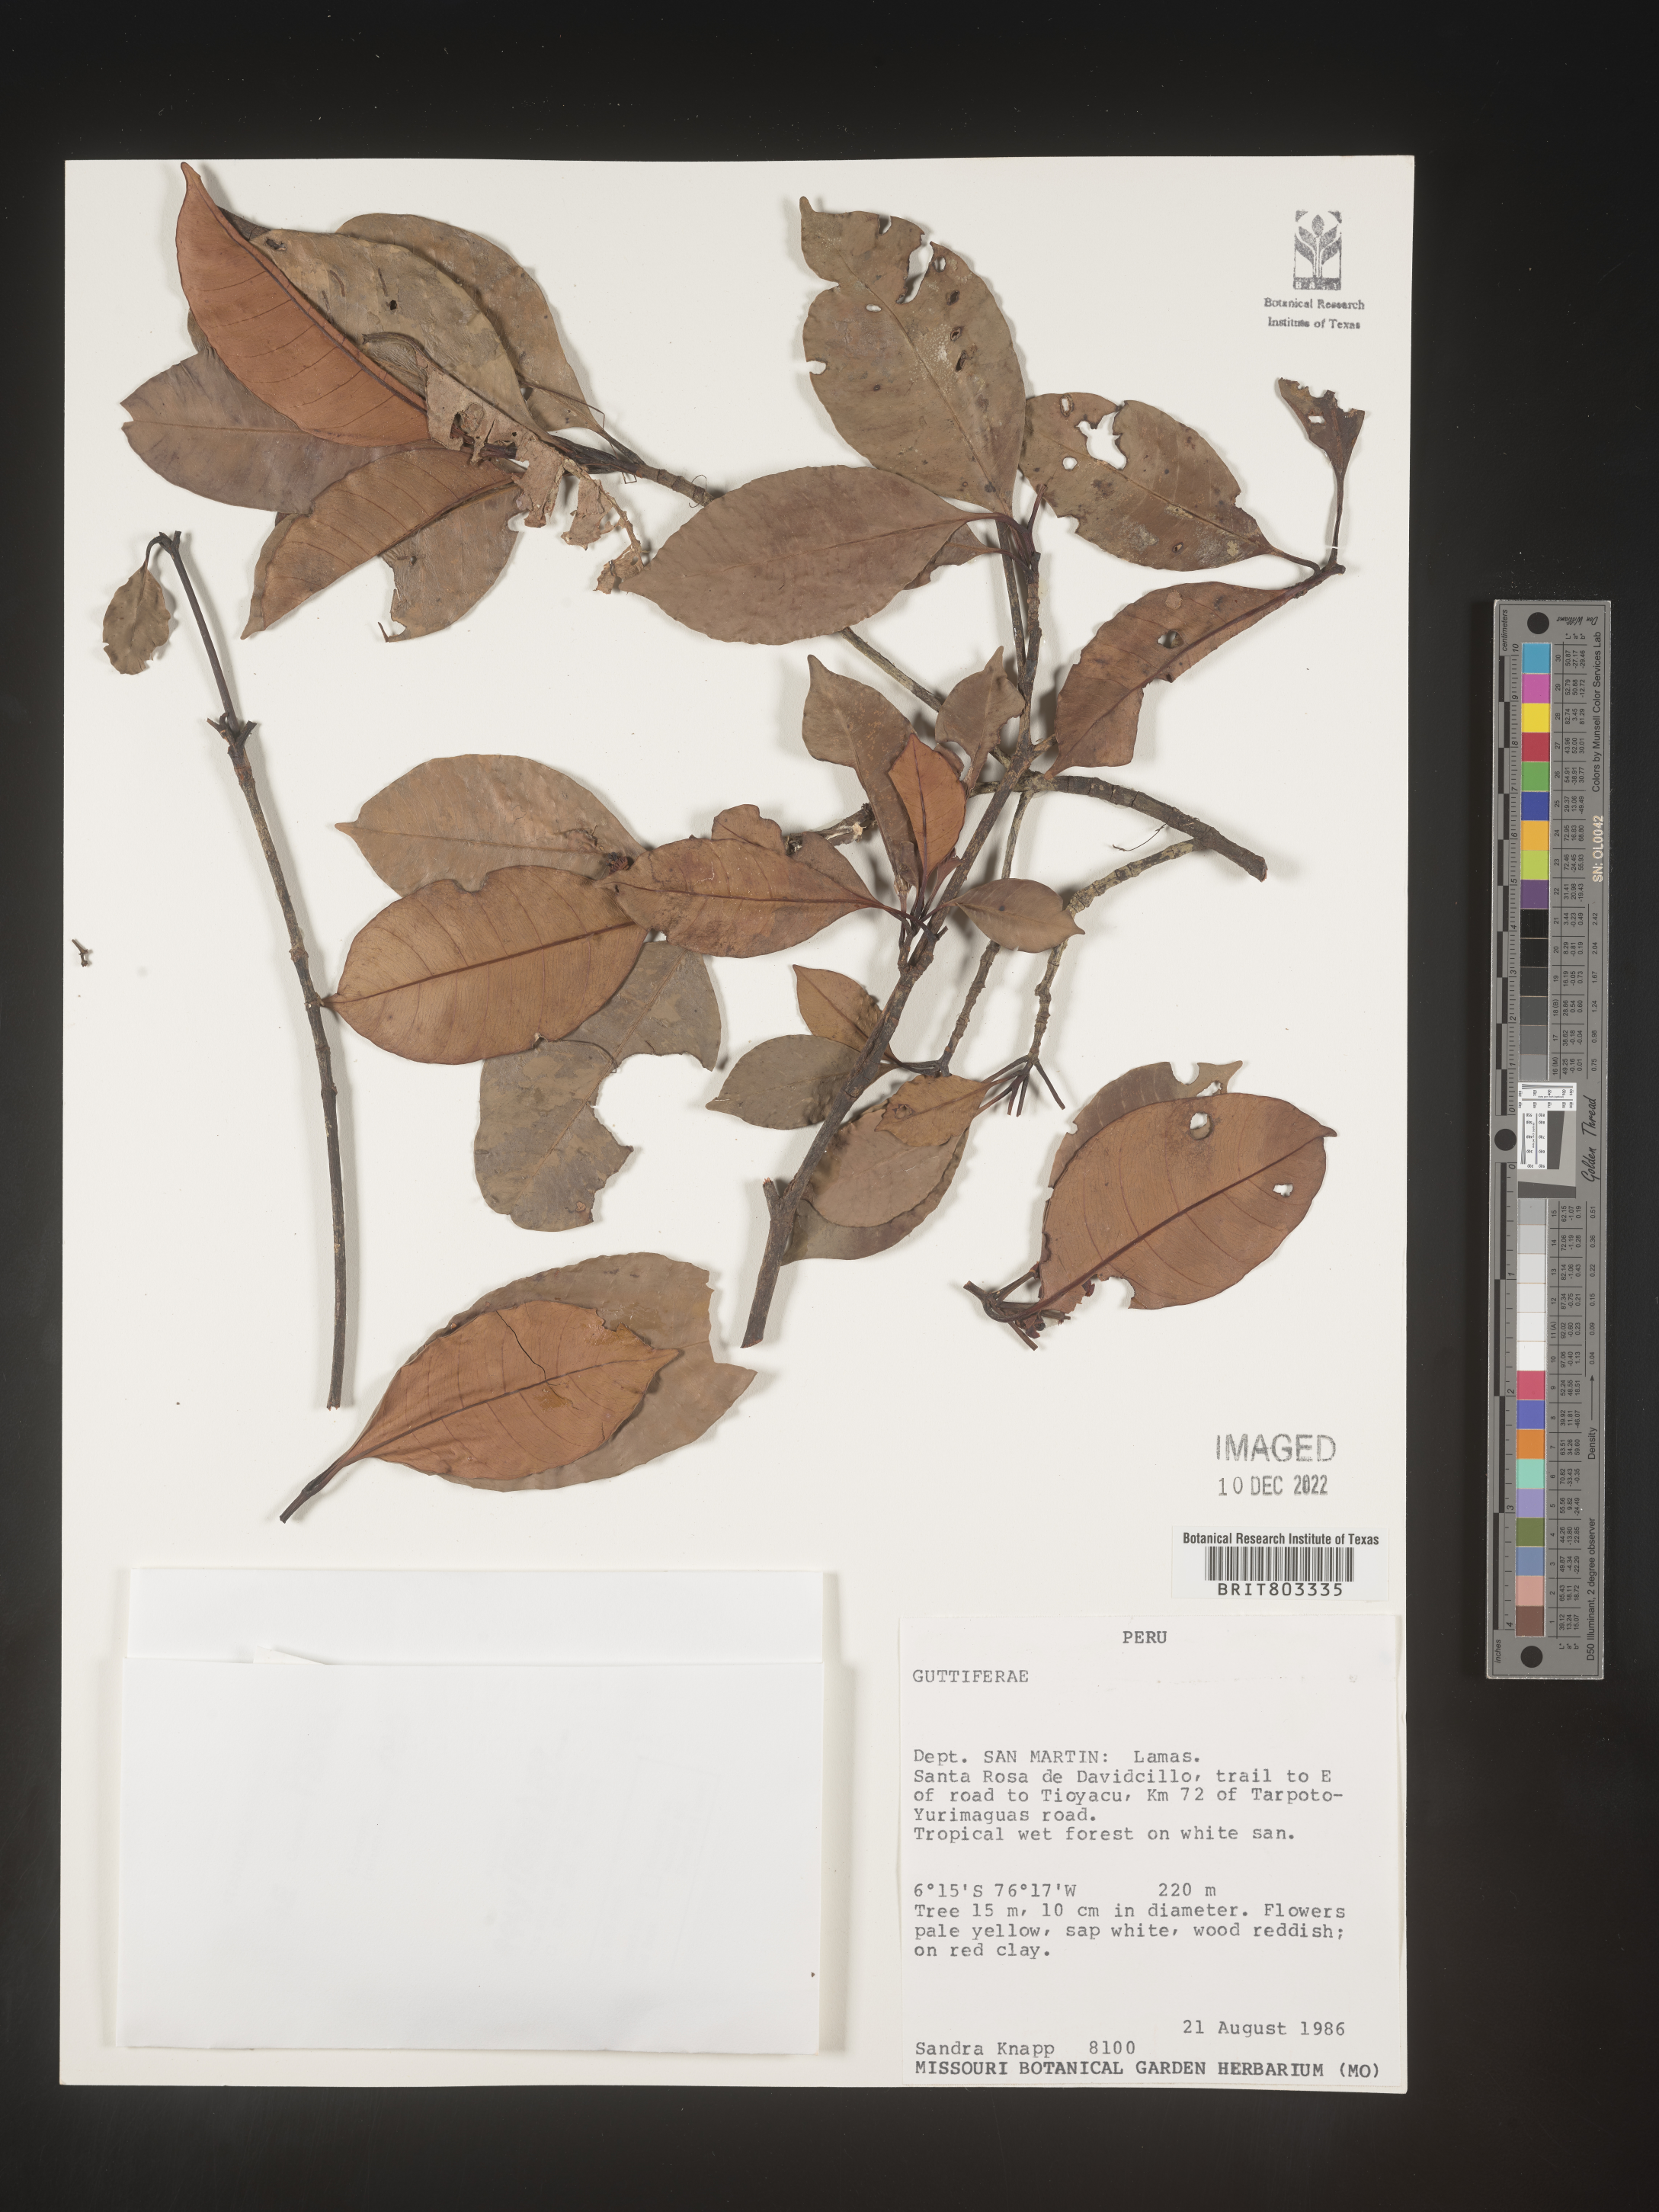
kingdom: Plantae
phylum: Tracheophyta
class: Magnoliopsida
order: Malpighiales
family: Clusiaceae
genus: Tovomita
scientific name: Tovomita
